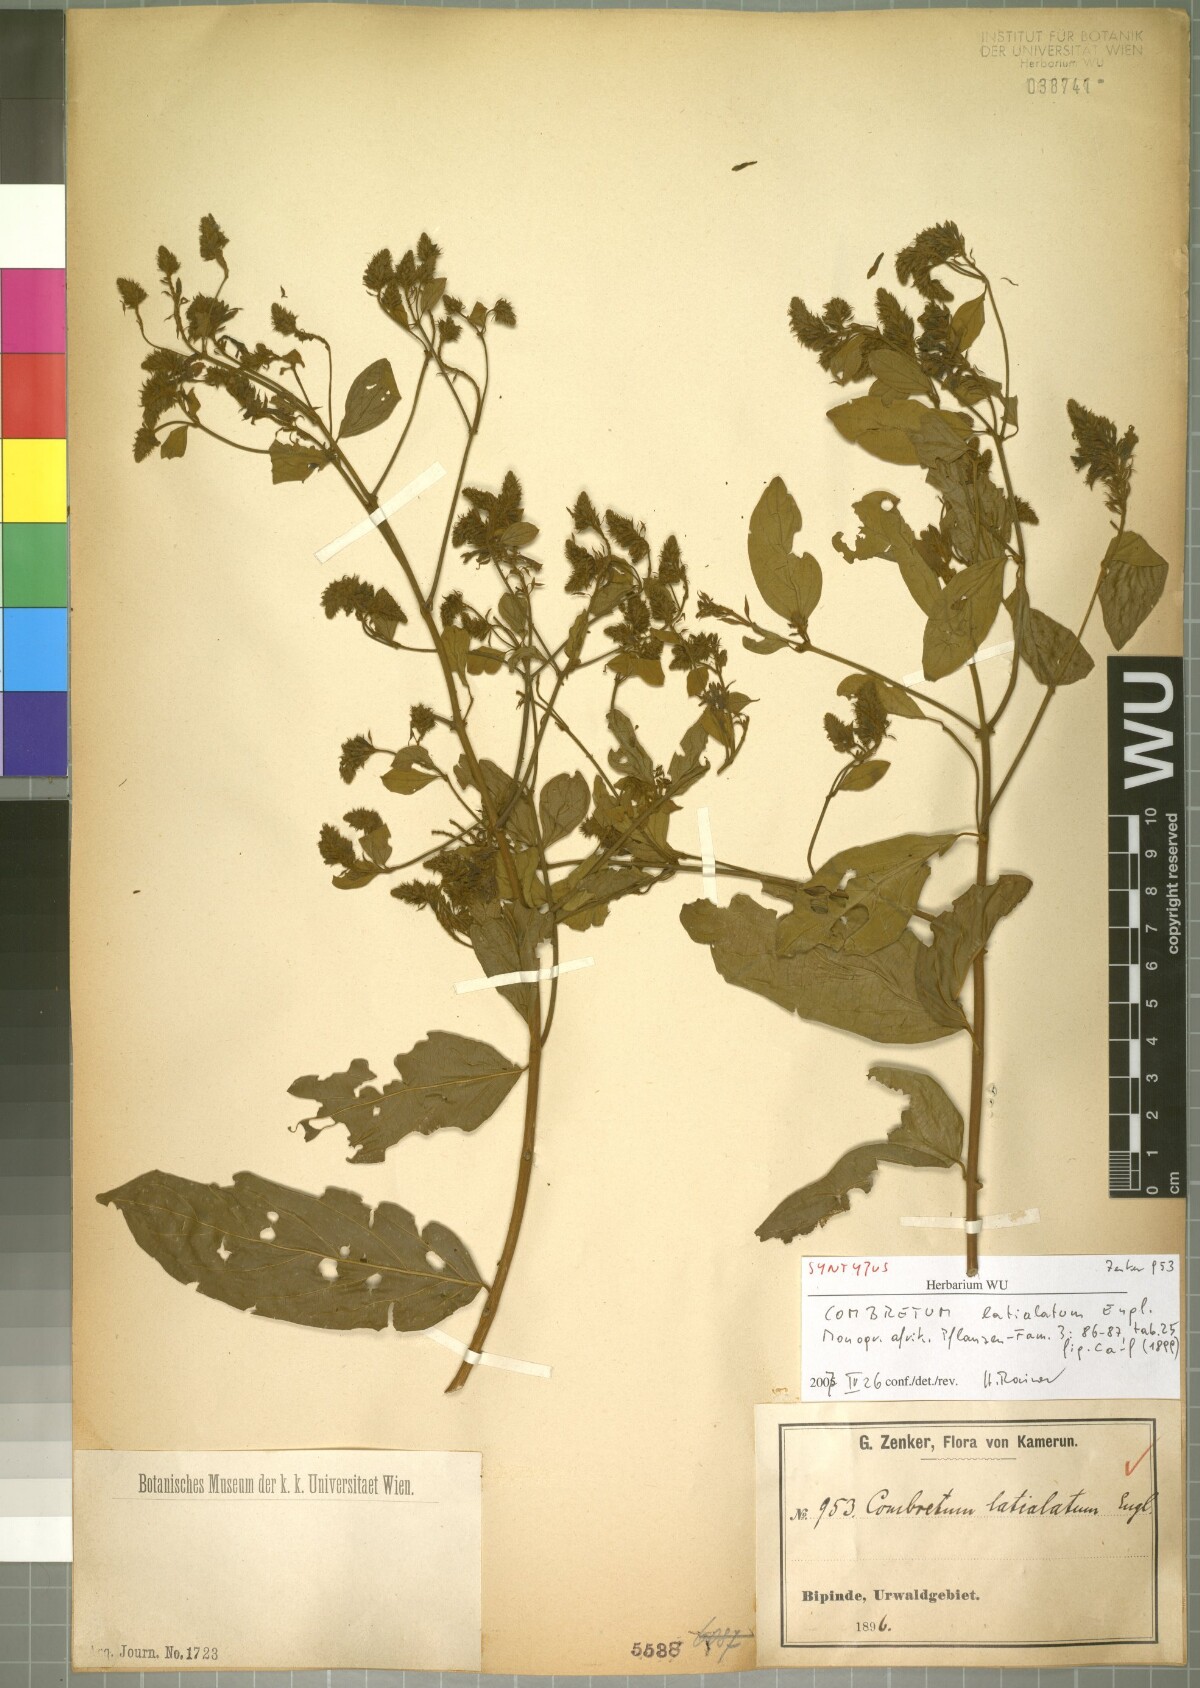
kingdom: Plantae
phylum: Tracheophyta
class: Magnoliopsida
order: Myrtales
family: Combretaceae
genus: Combretum
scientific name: Combretum latialatum
